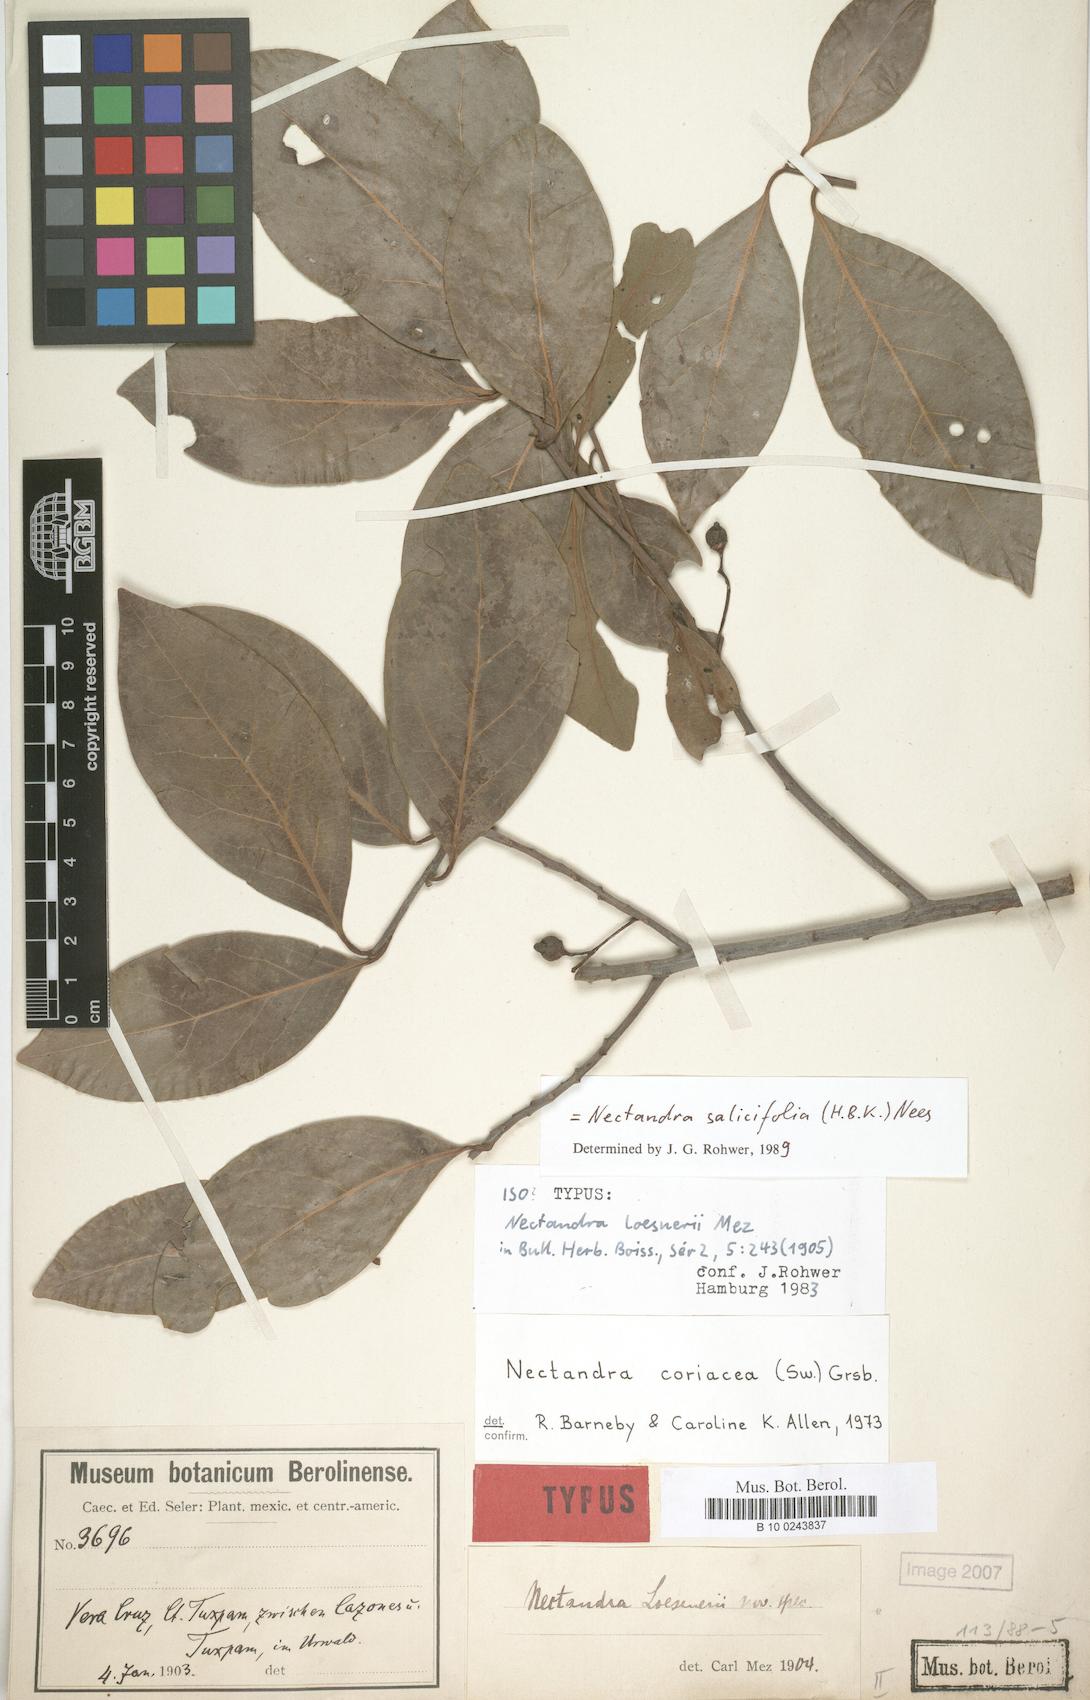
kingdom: Plantae
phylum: Tracheophyta
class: Magnoliopsida
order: Laurales
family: Lauraceae
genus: Damburneya
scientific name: Damburneya salicifolia
